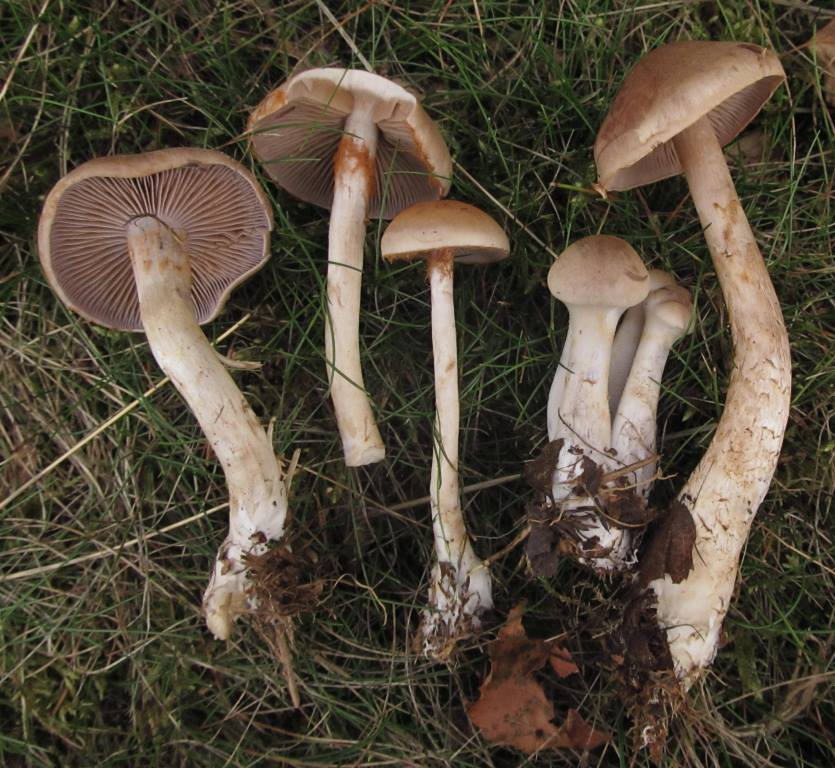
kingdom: Fungi
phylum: Basidiomycota
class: Agaricomycetes
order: Agaricales
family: Cortinariaceae
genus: Cortinarius
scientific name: Cortinarius anomalus
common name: Variable webcap
